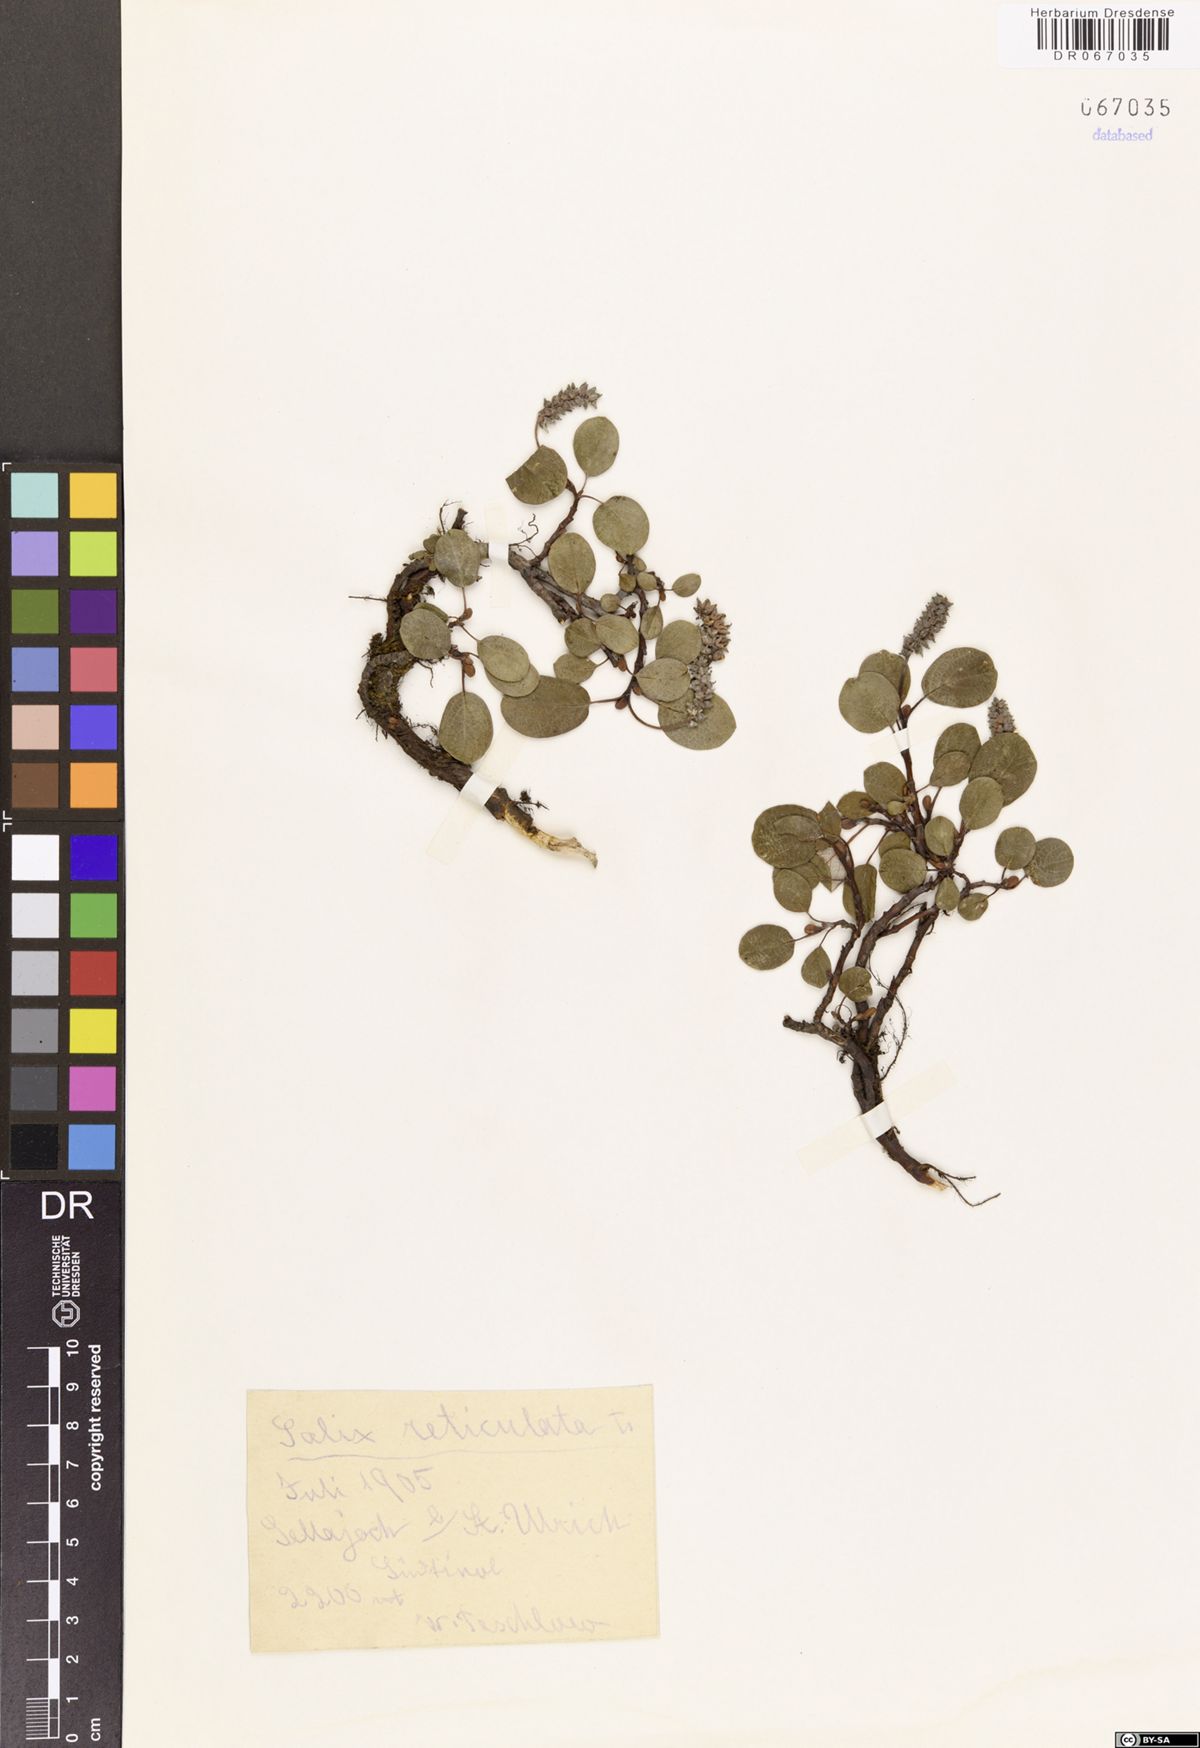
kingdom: Plantae
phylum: Tracheophyta
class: Magnoliopsida
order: Malpighiales
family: Salicaceae
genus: Salix
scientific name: Salix reticulata
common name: Net-leaved willow
